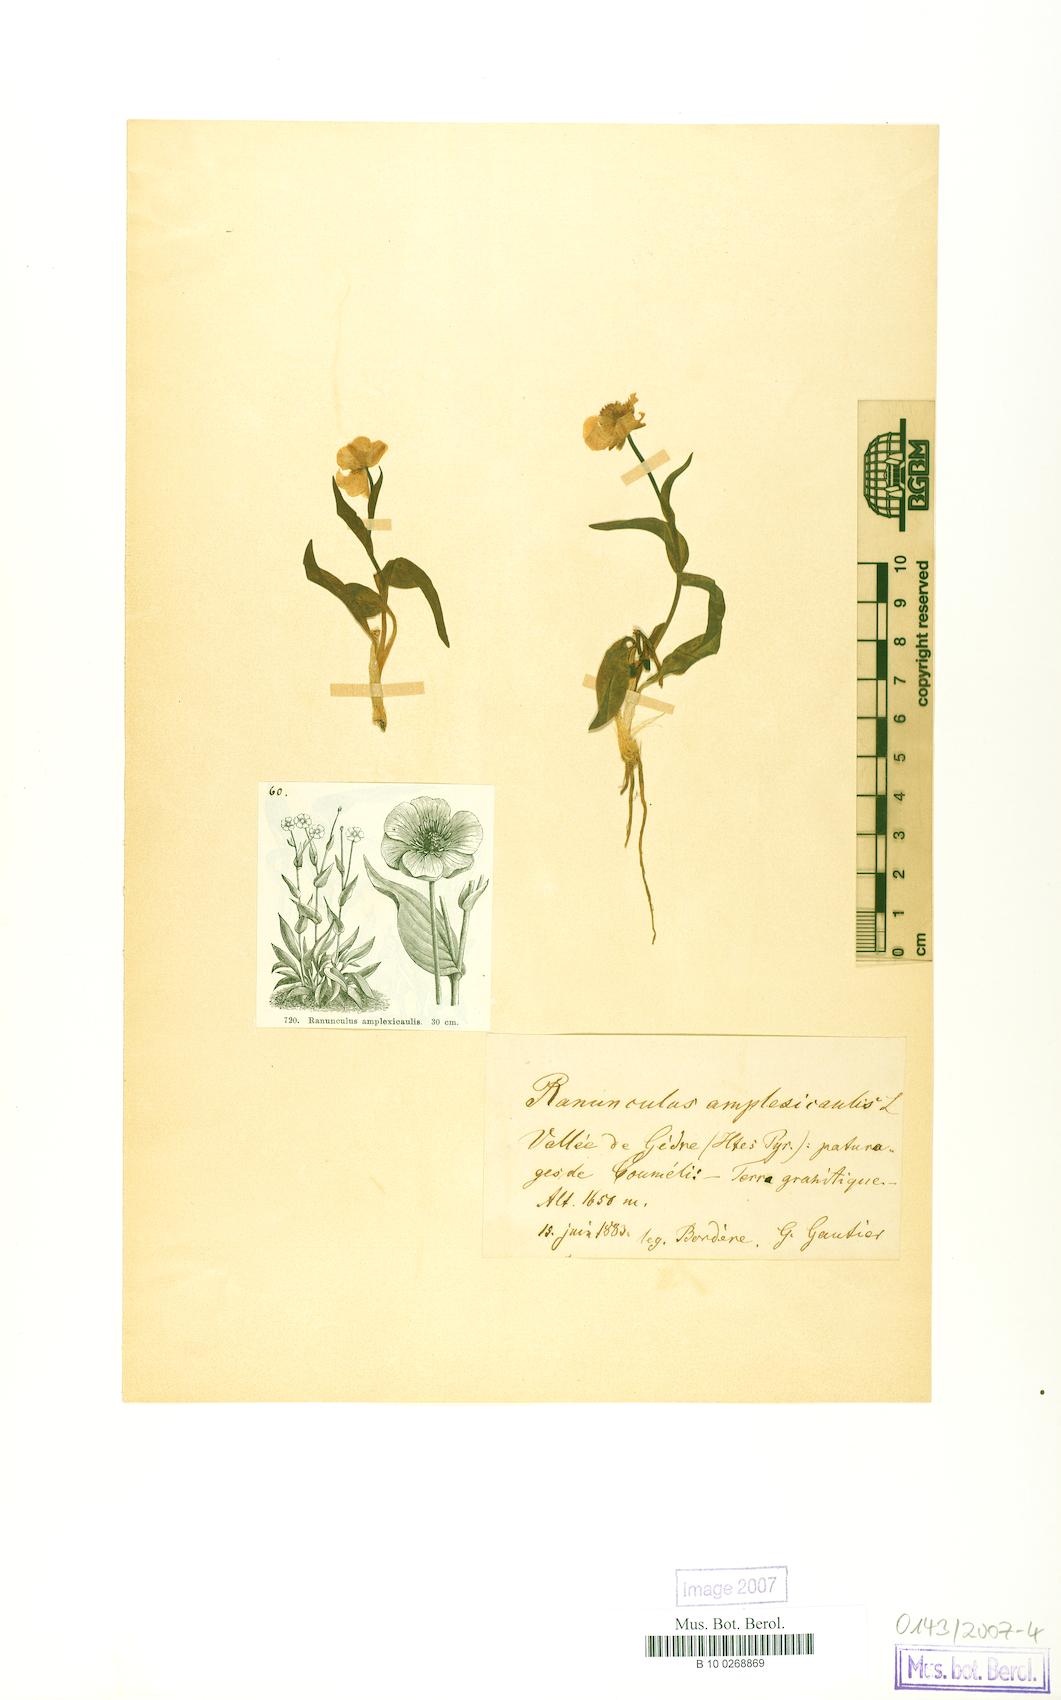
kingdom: Plantae
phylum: Tracheophyta
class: Magnoliopsida
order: Ranunculales
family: Ranunculaceae
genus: Ranunculus
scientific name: Ranunculus amplexicaulis
